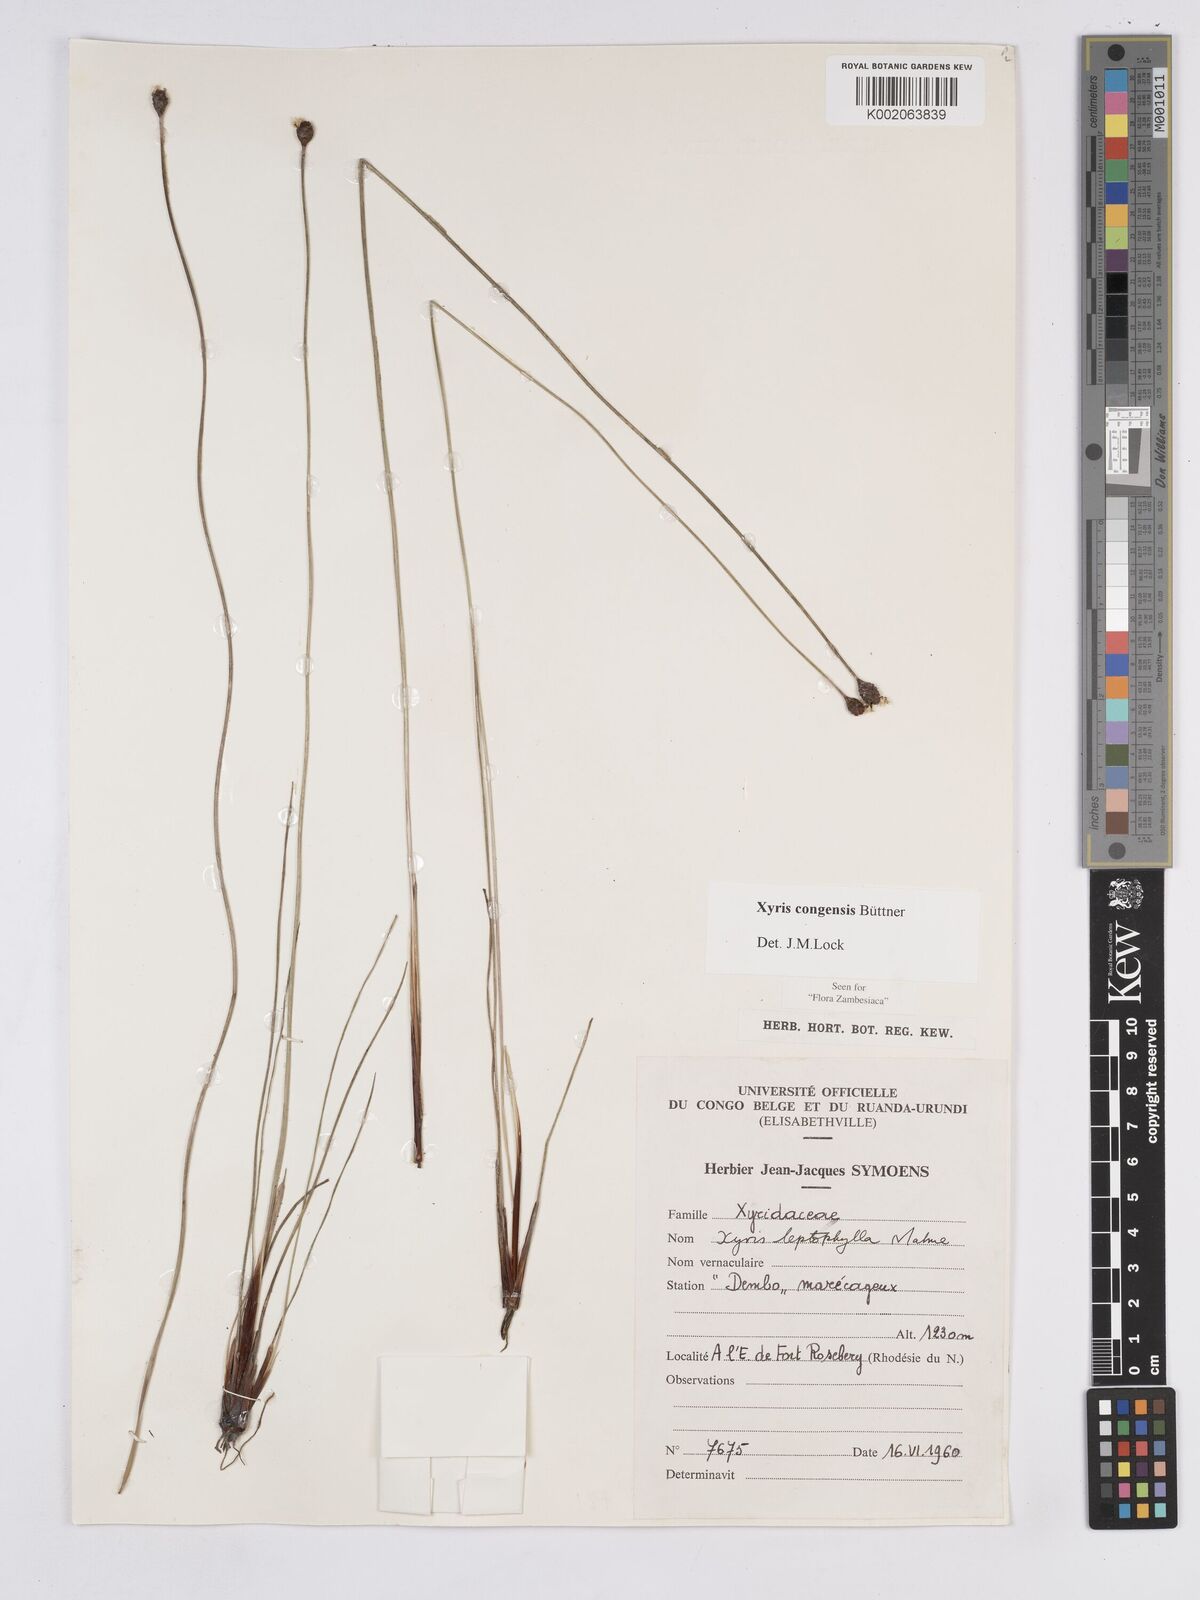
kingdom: Plantae
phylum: Tracheophyta
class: Liliopsida
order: Poales
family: Xyridaceae
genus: Xyris
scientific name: Xyris congensis
